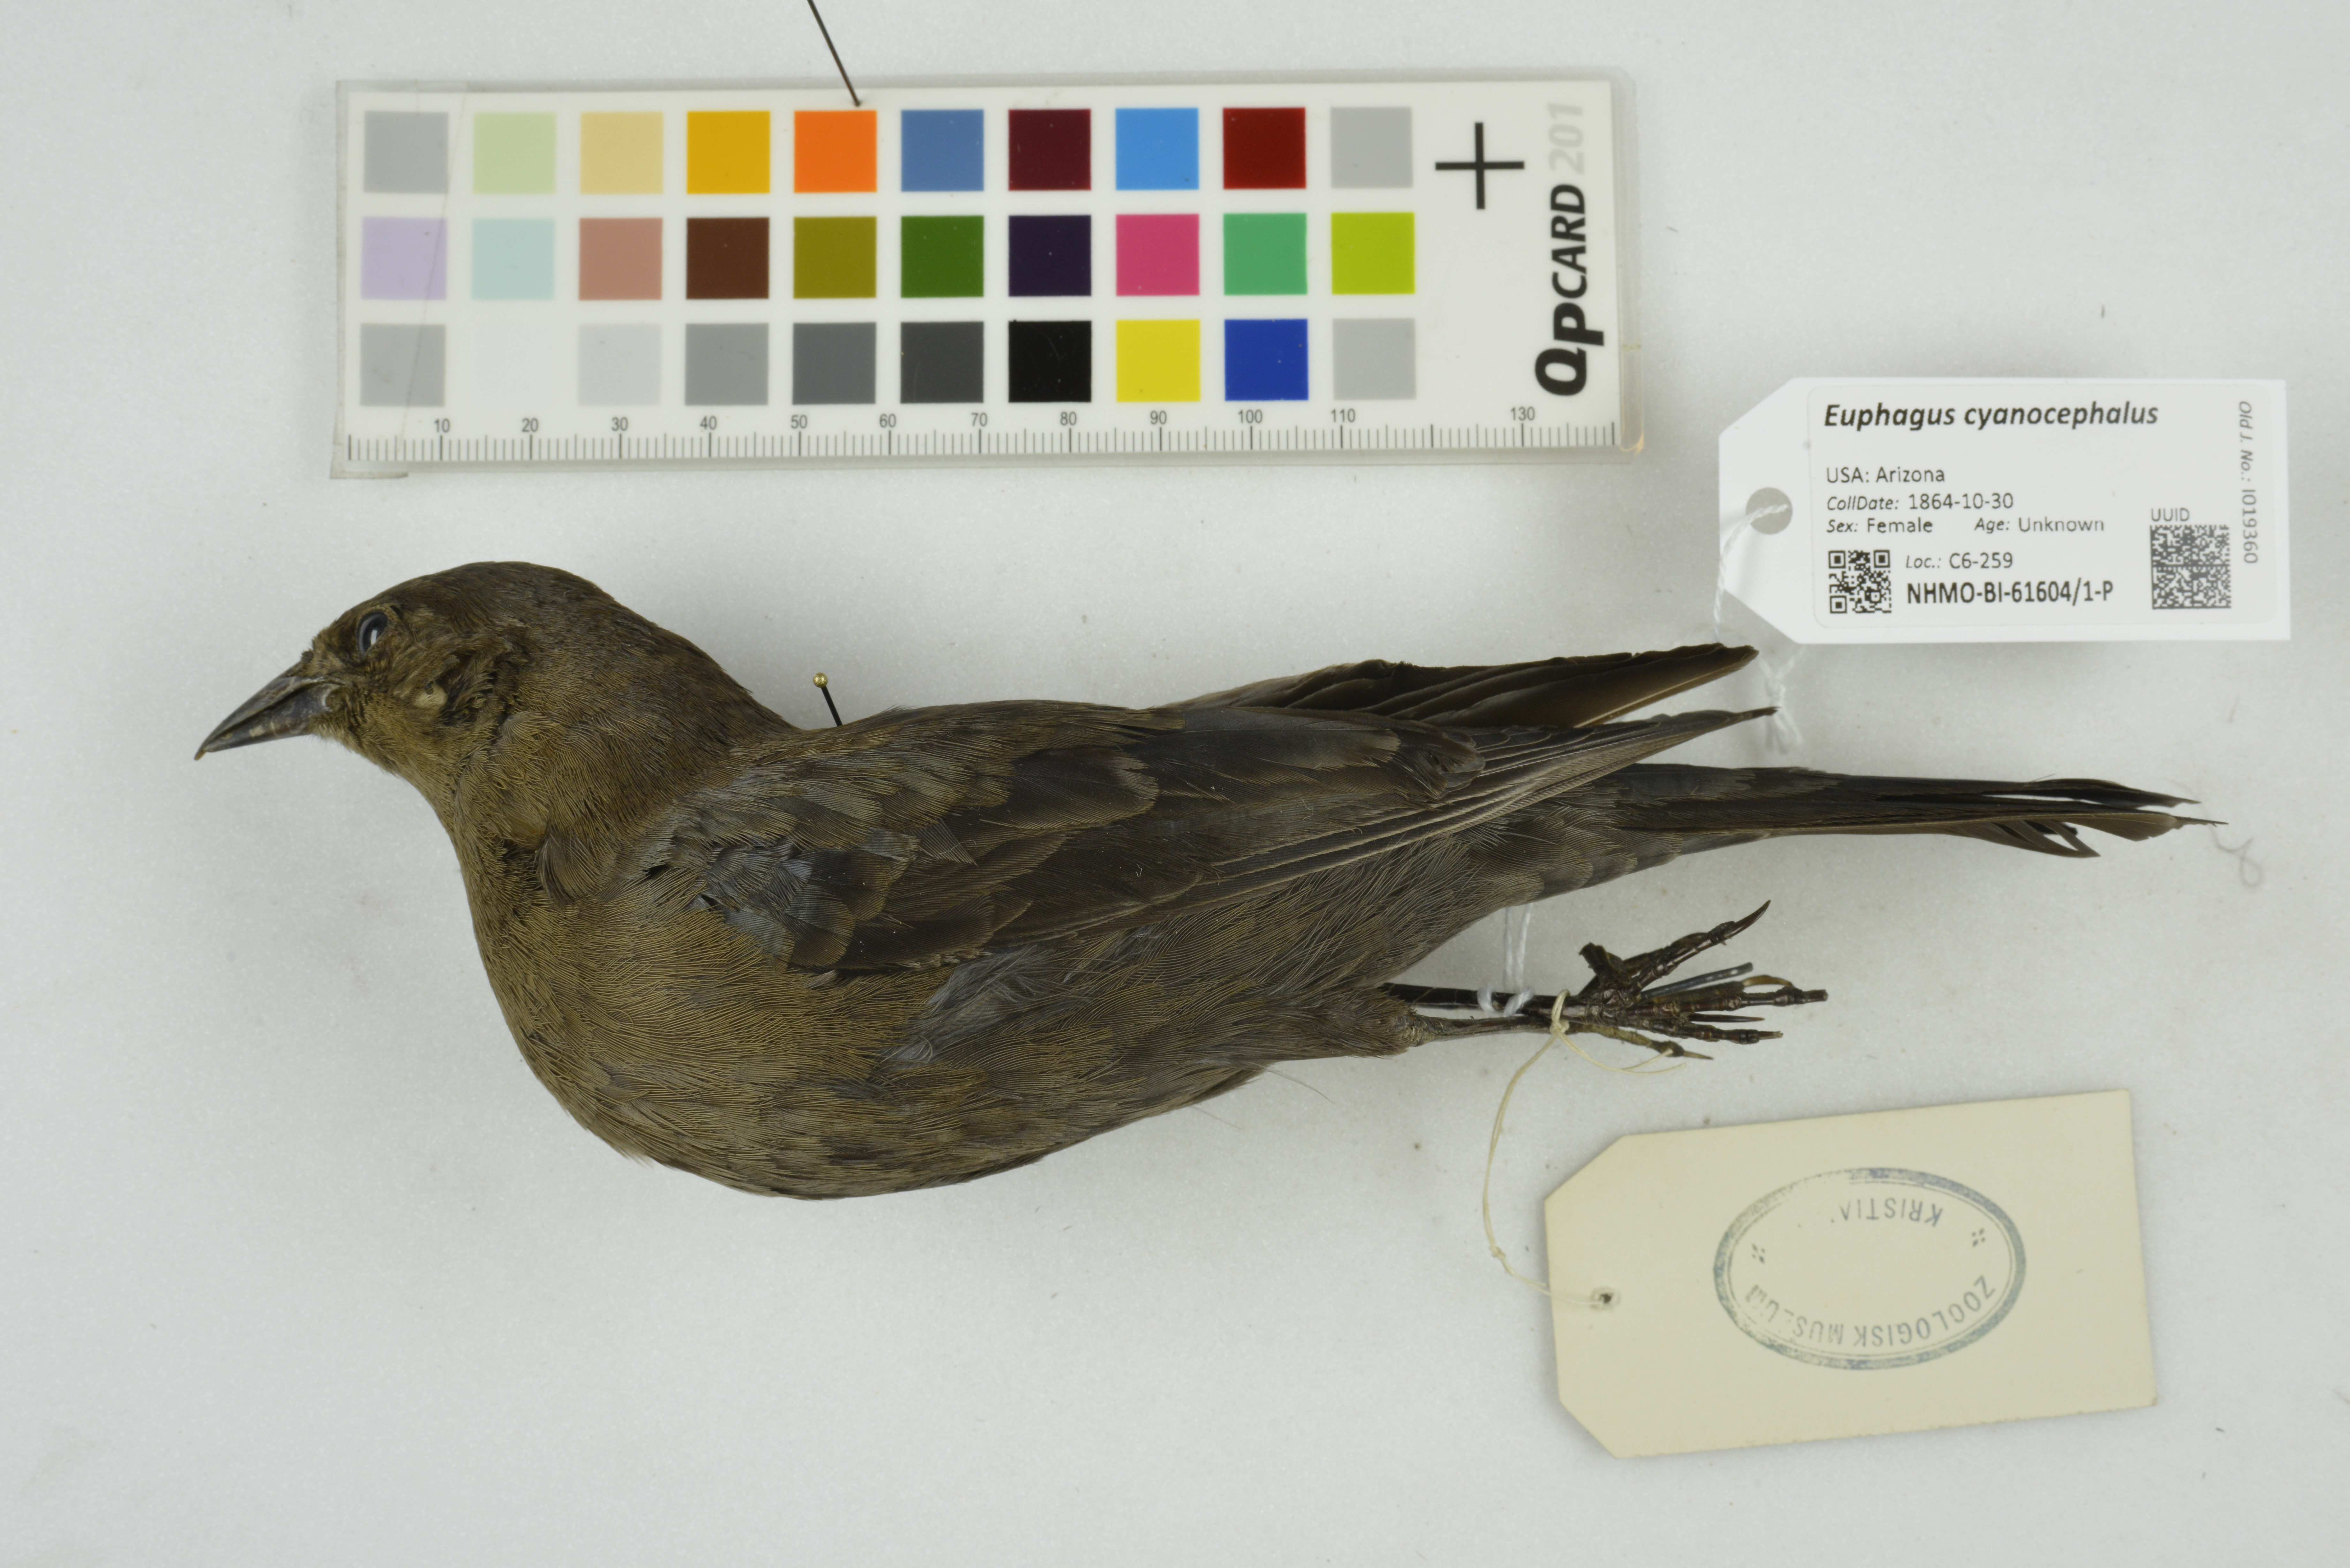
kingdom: Animalia
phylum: Chordata
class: Aves
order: Passeriformes
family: Icteridae
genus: Euphagus
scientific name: Euphagus cyanocephalus
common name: Brewer's blackbird
